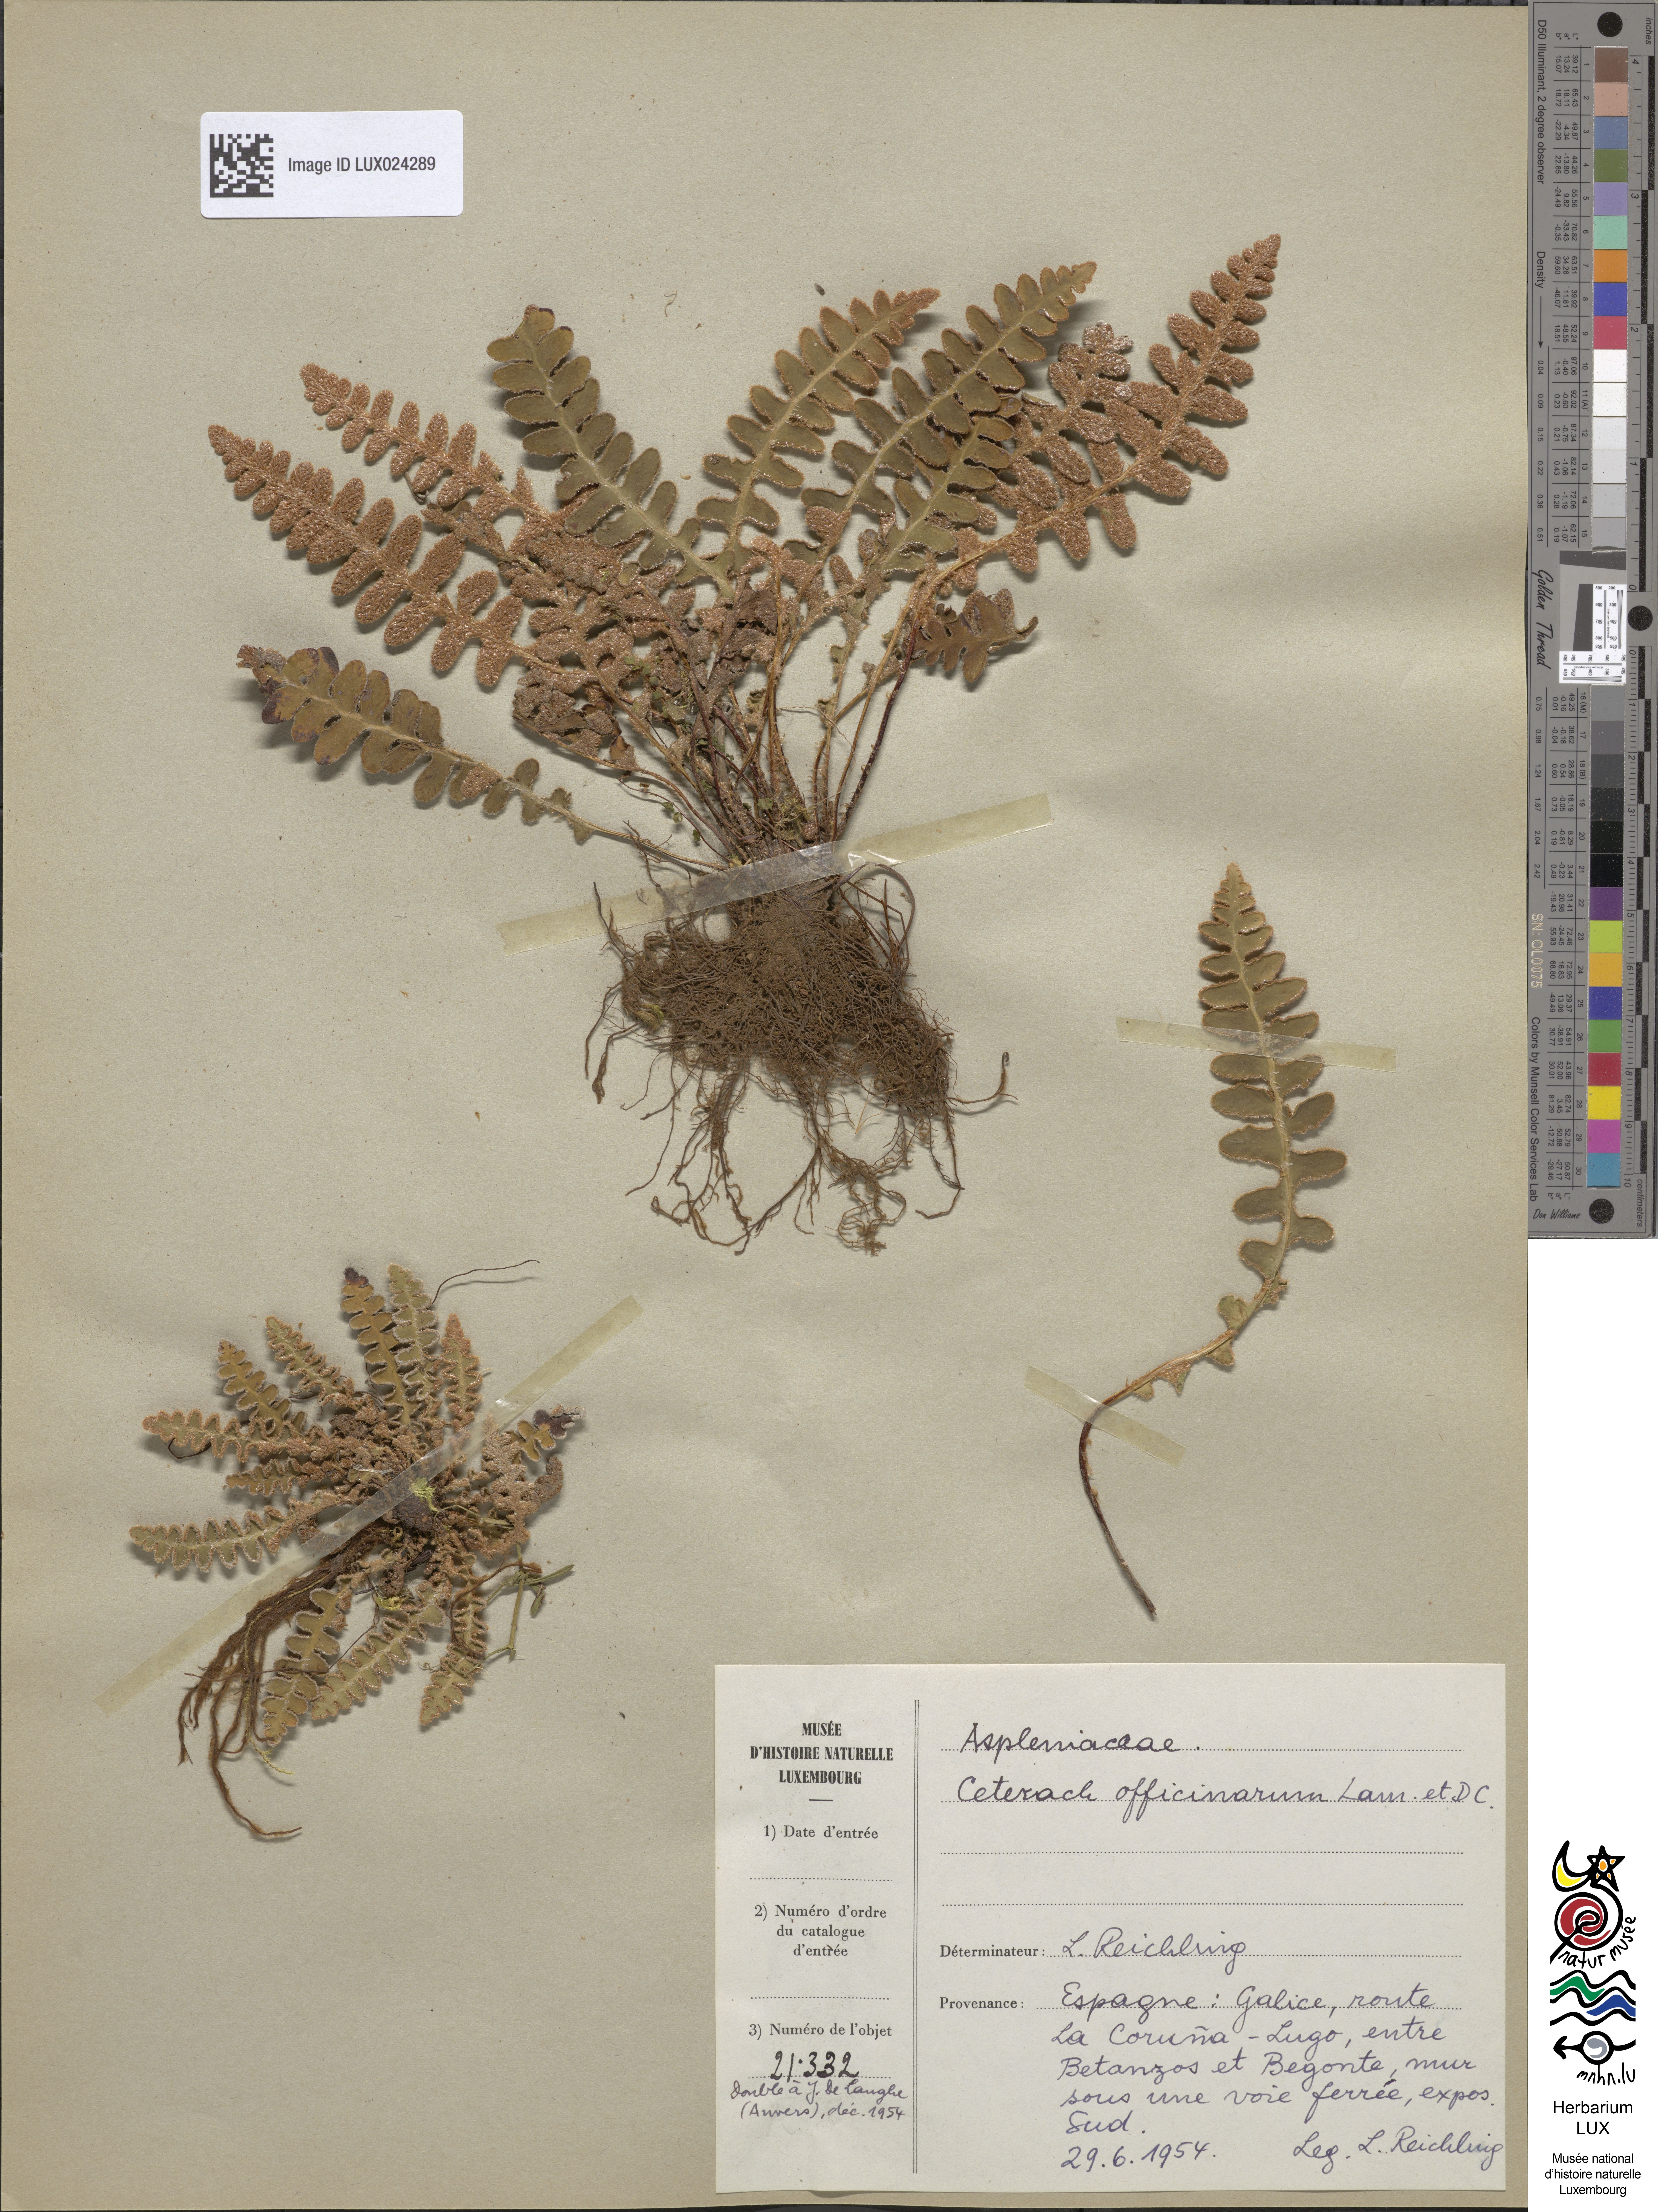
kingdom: Plantae
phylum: Tracheophyta
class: Polypodiopsida
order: Polypodiales
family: Aspleniaceae
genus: Asplenium
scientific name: Asplenium ceterach
